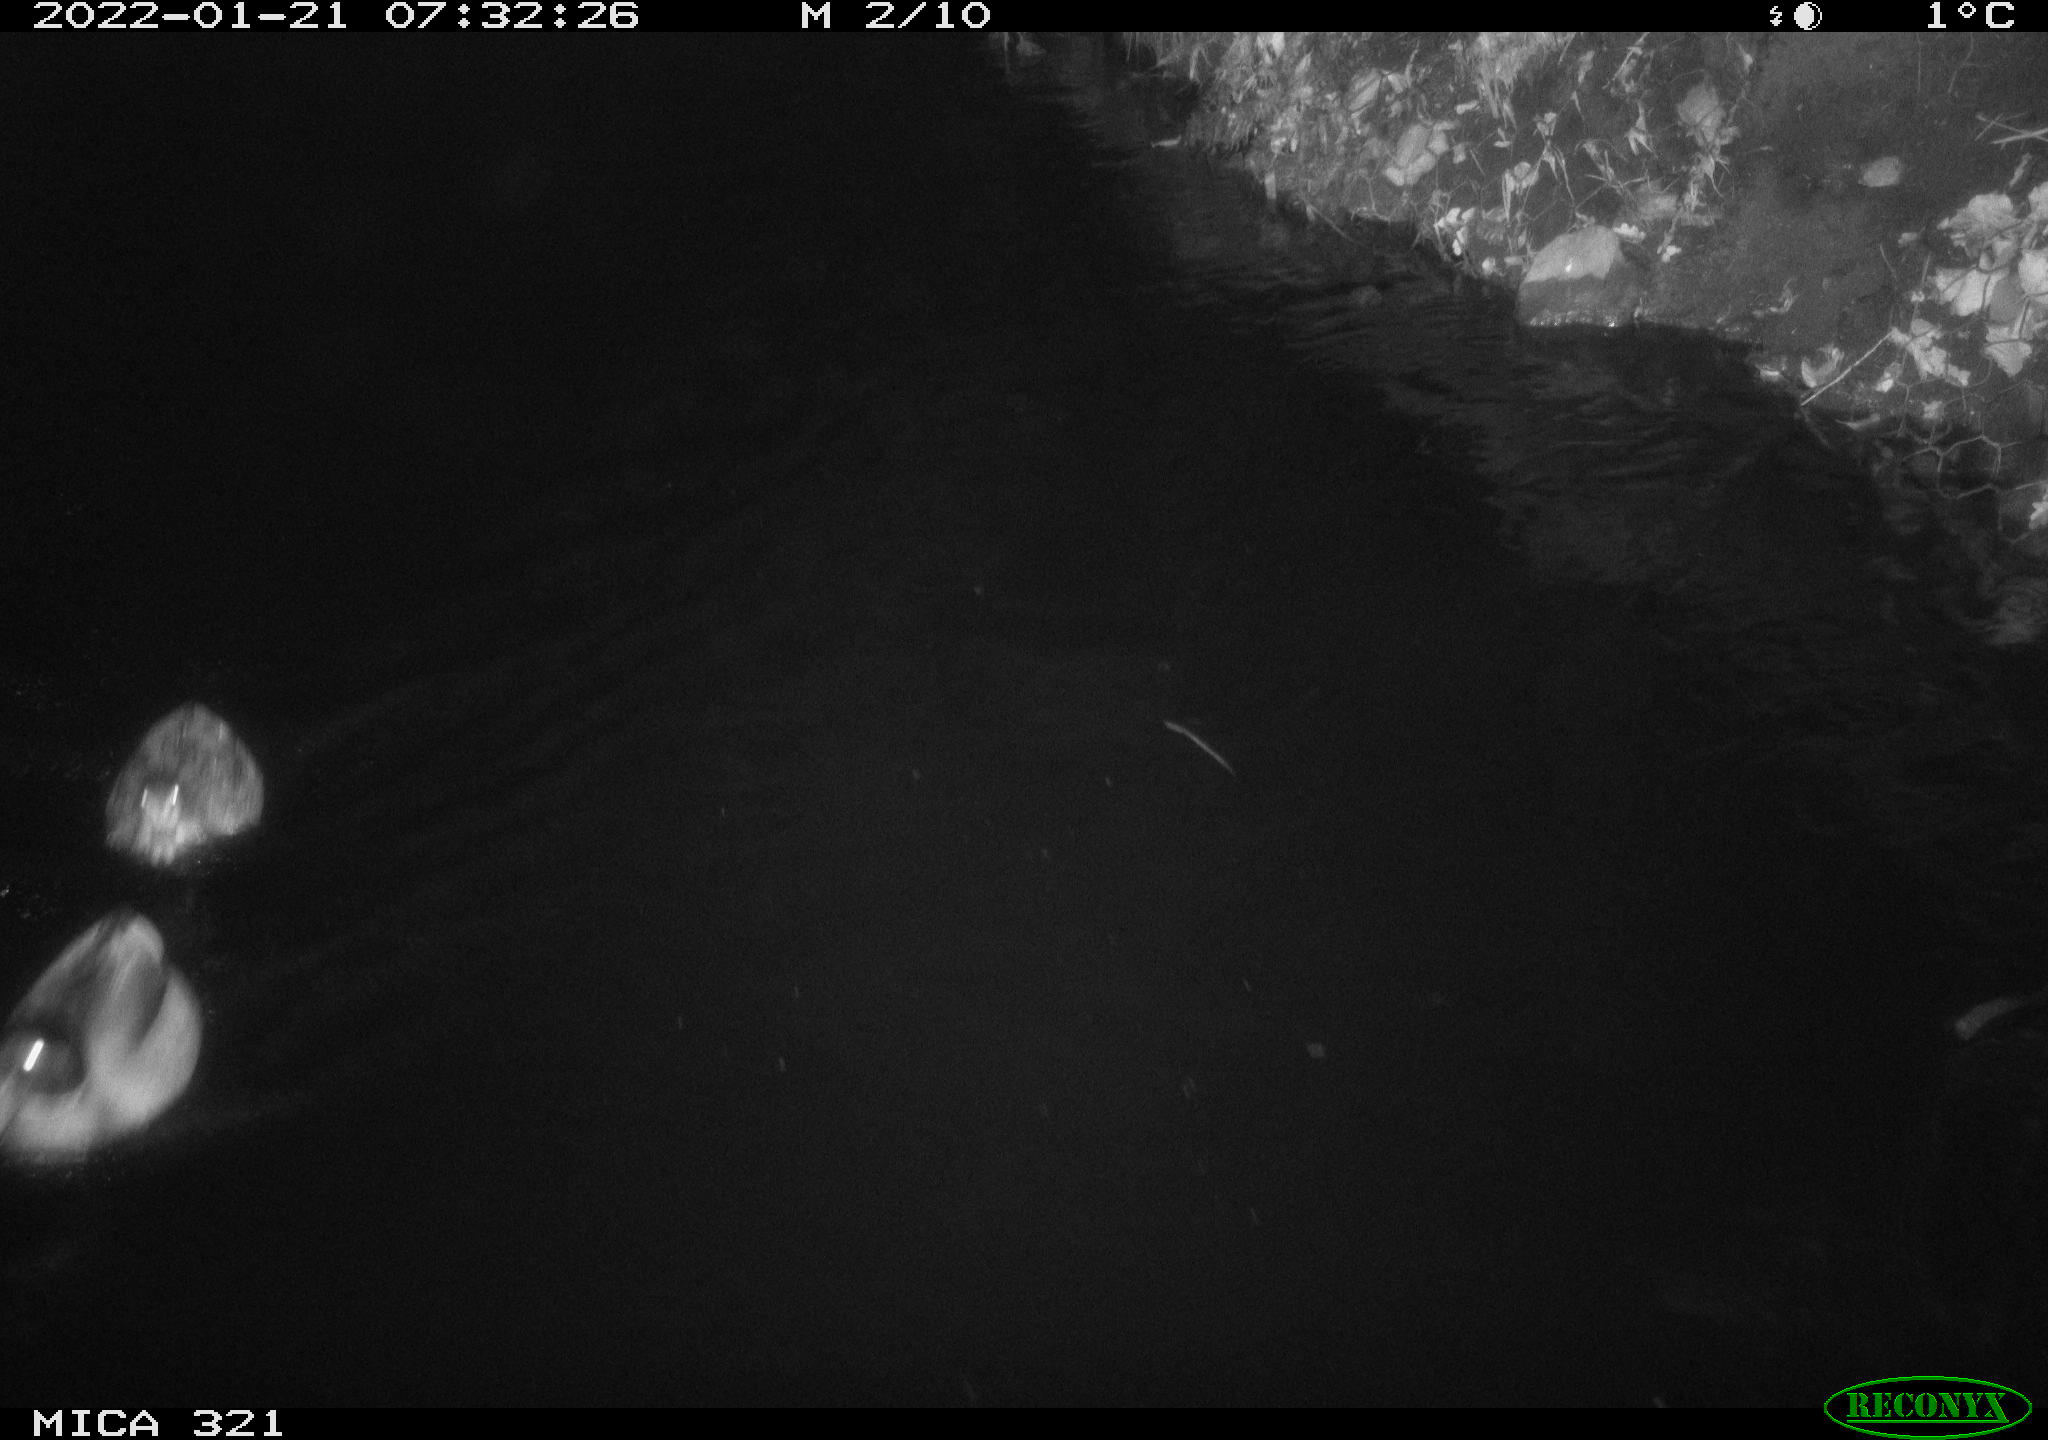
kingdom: Animalia
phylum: Chordata
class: Aves
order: Anseriformes
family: Anatidae
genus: Anas
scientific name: Anas platyrhynchos
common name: Mallard
